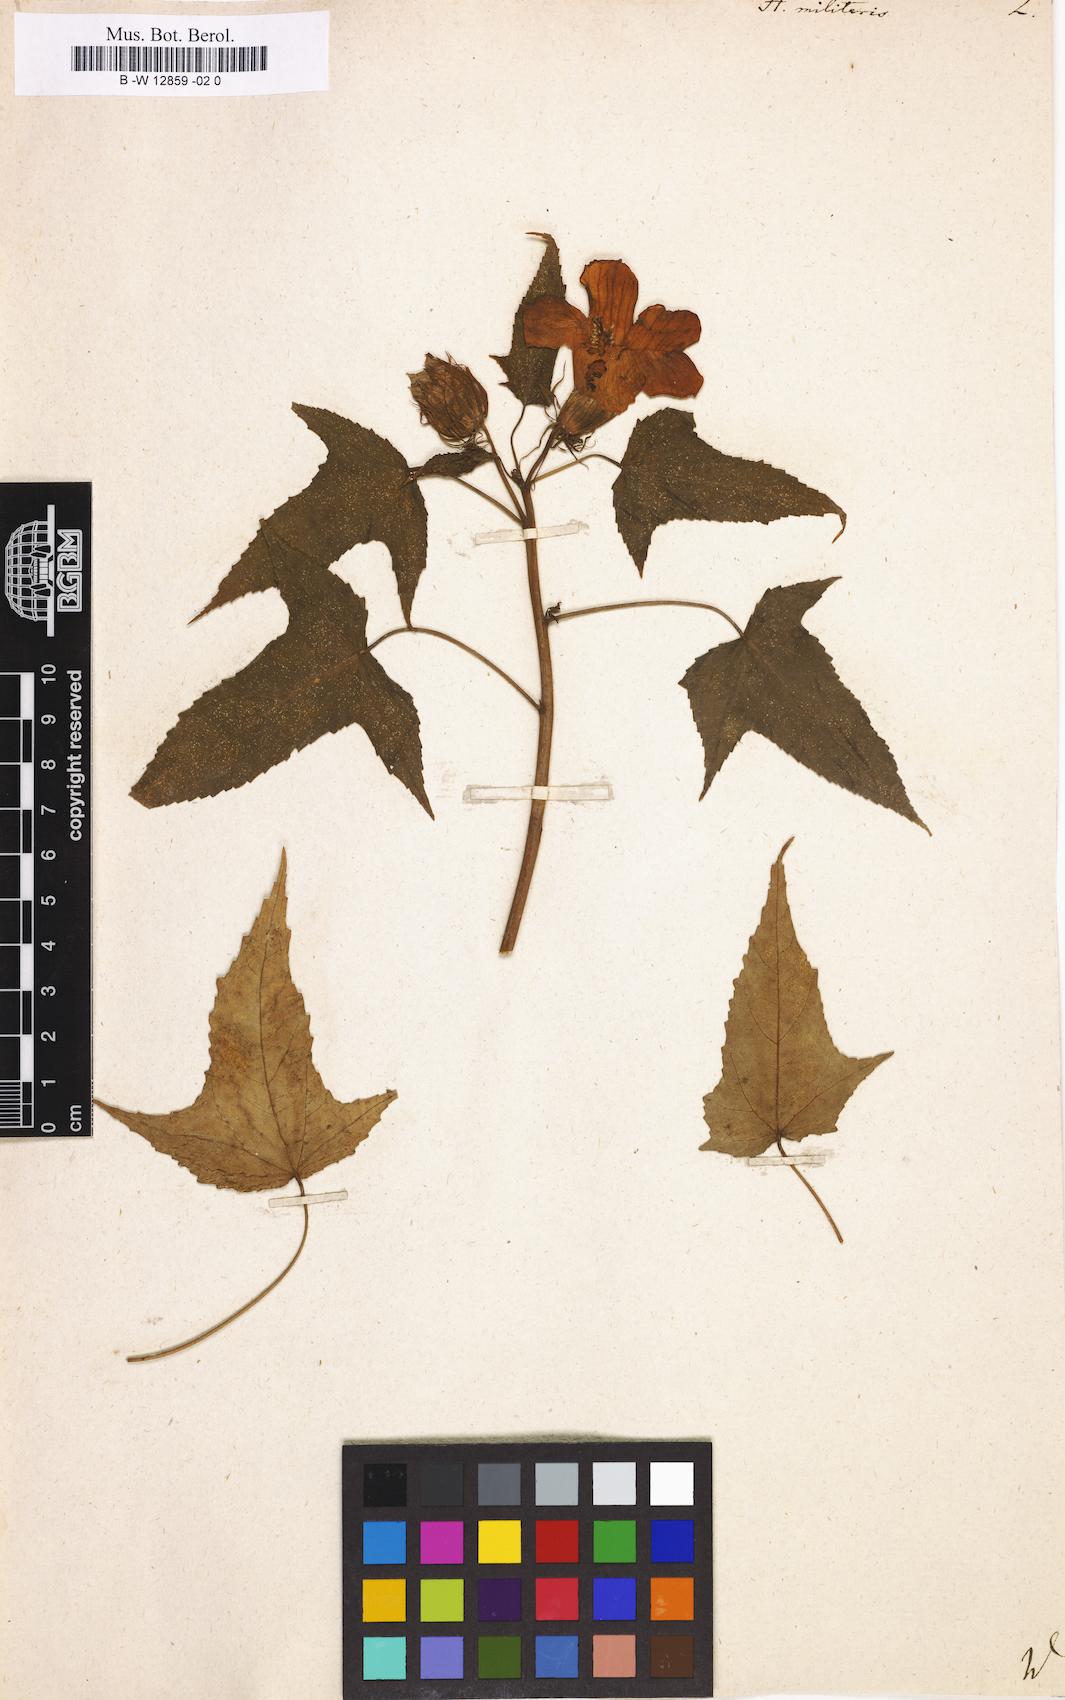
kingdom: Plantae
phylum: Tracheophyta
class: Magnoliopsida
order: Malvales
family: Malvaceae
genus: Hibiscus
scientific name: Hibiscus laevis
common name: Scarlet rose-mallow
